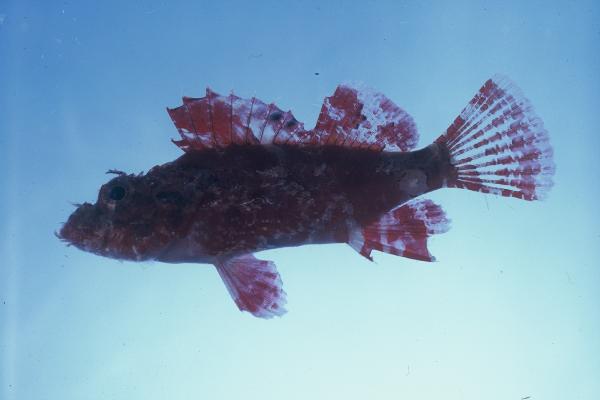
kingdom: Animalia
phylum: Chordata
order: Scorpaeniformes
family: Scorpaenidae
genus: Scorpaenopsis
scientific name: Scorpaenopsis longispina
